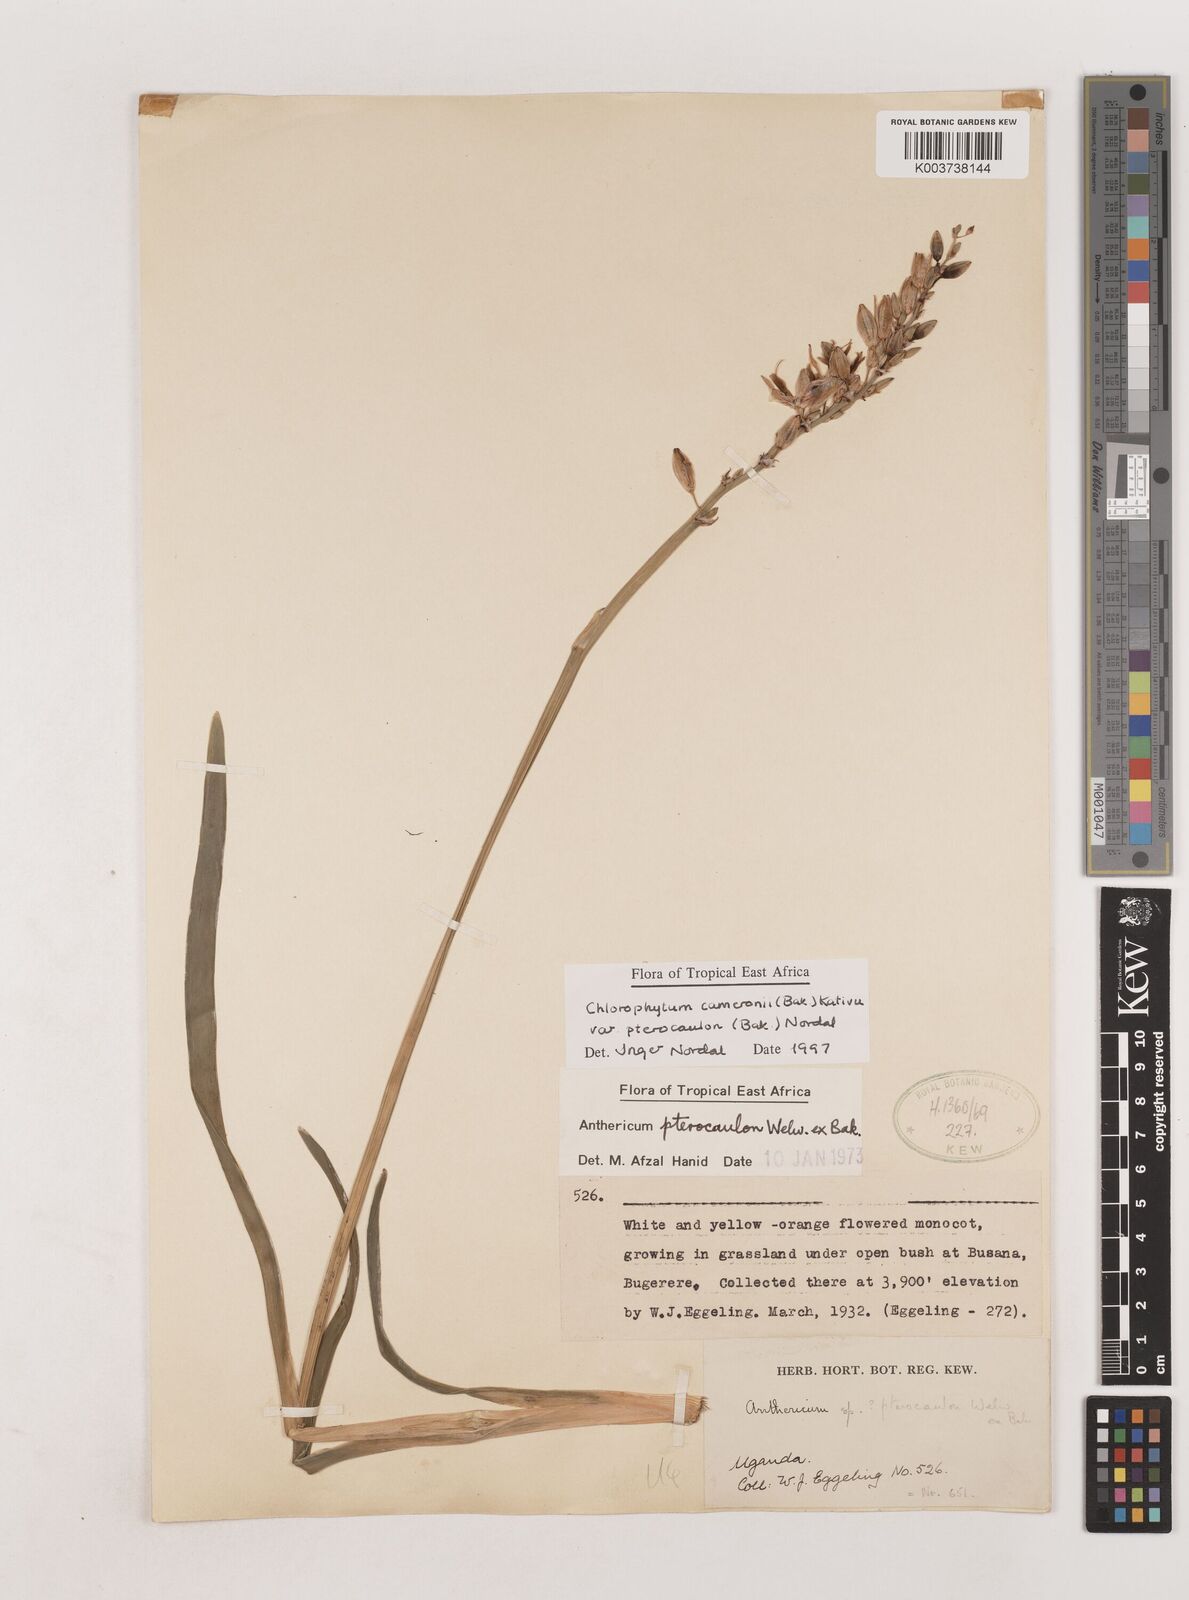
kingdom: Plantae
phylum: Tracheophyta
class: Liliopsida
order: Asparagales
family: Asparagaceae
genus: Chlorophytum
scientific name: Chlorophytum cameronii
